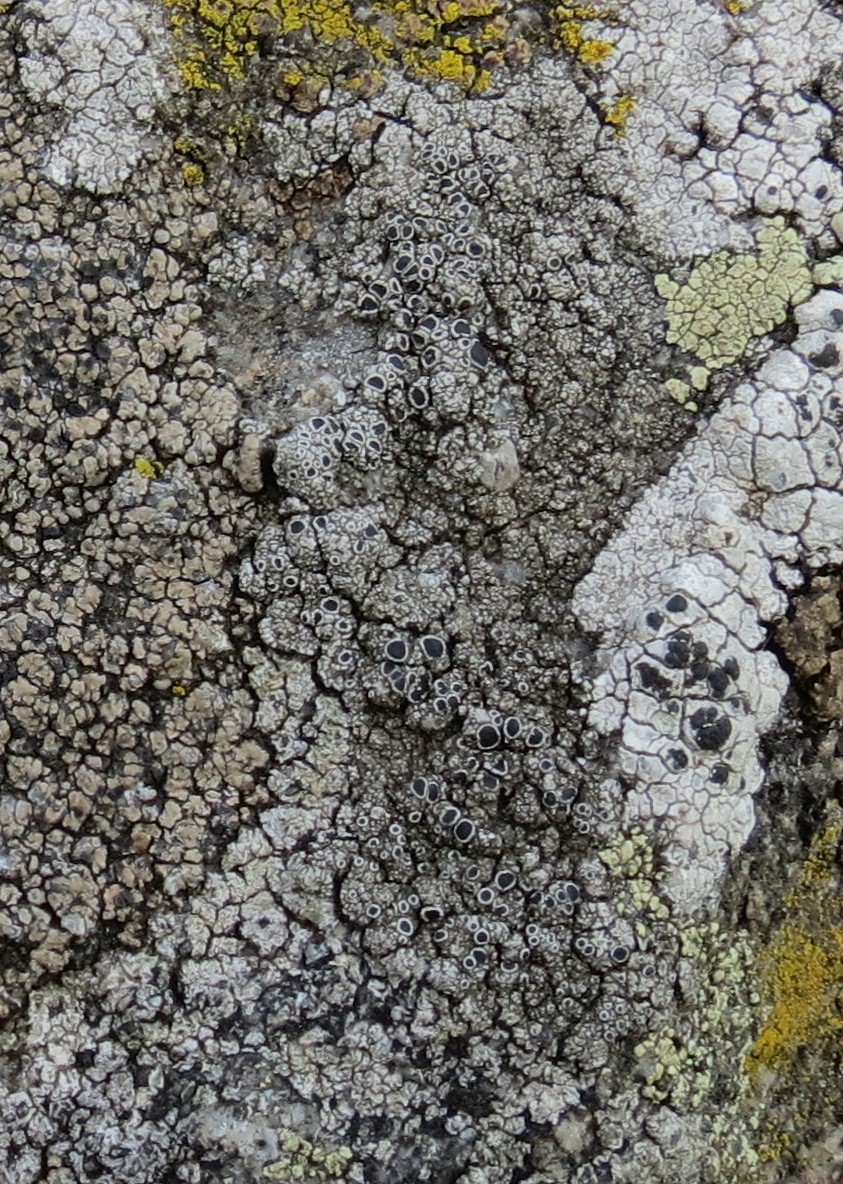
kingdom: Fungi
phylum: Ascomycota
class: Lecanoromycetes
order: Lecanorales
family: Lecanoraceae
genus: Lecanora
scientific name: Lecanora gangaleoides
